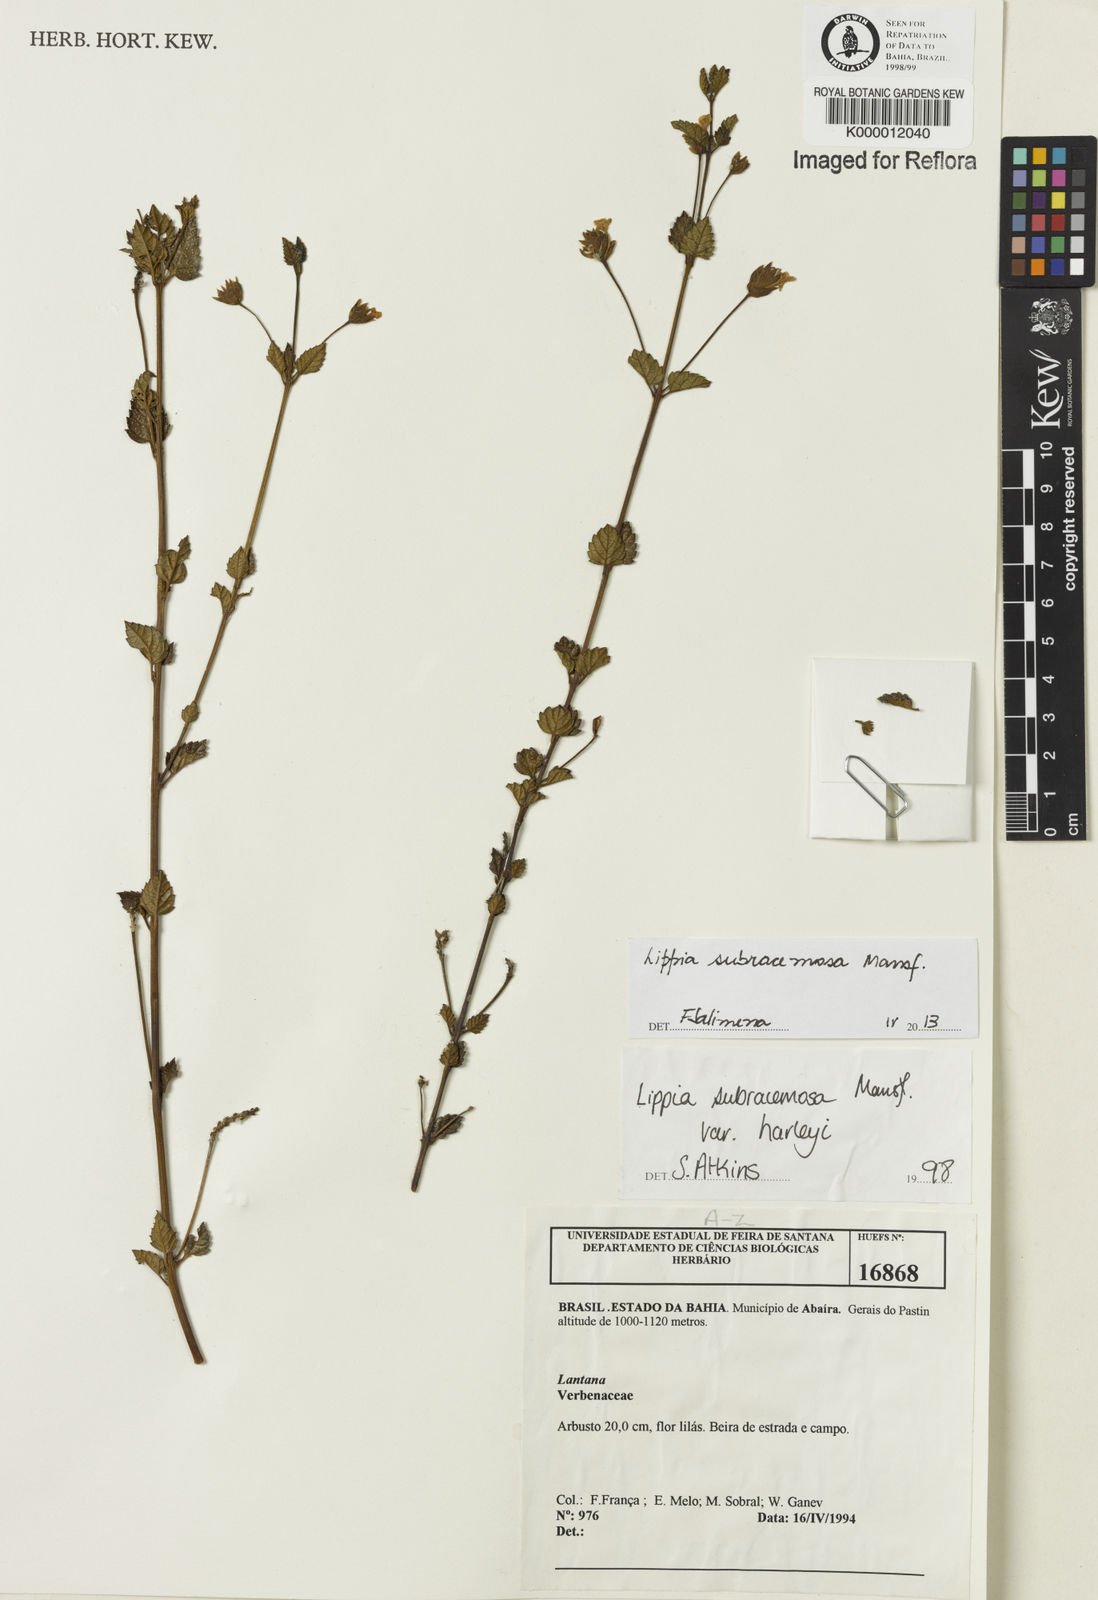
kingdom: Plantae
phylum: Tracheophyta
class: Magnoliopsida
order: Lamiales
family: Verbenaceae
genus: Lippia
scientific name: Lippia deltata
